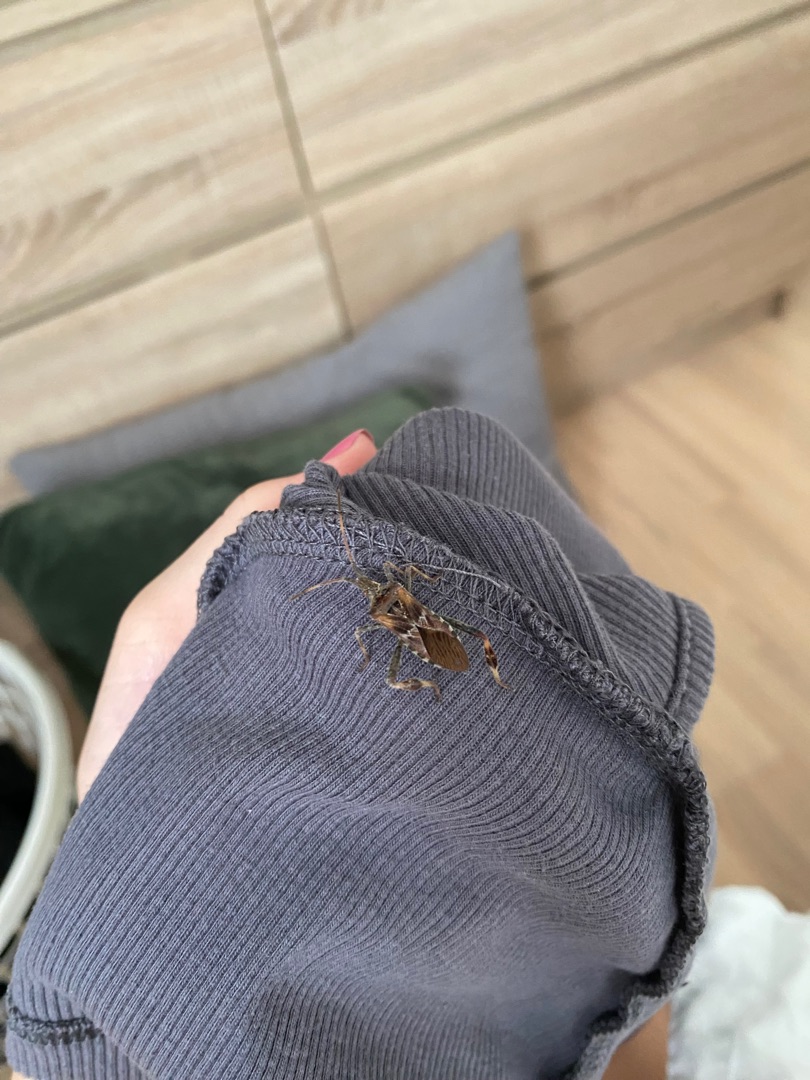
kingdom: Animalia
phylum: Arthropoda
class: Insecta
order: Hemiptera
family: Coreidae
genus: Leptoglossus
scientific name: Leptoglossus occidentalis
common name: Amerikansk fyrretæge
